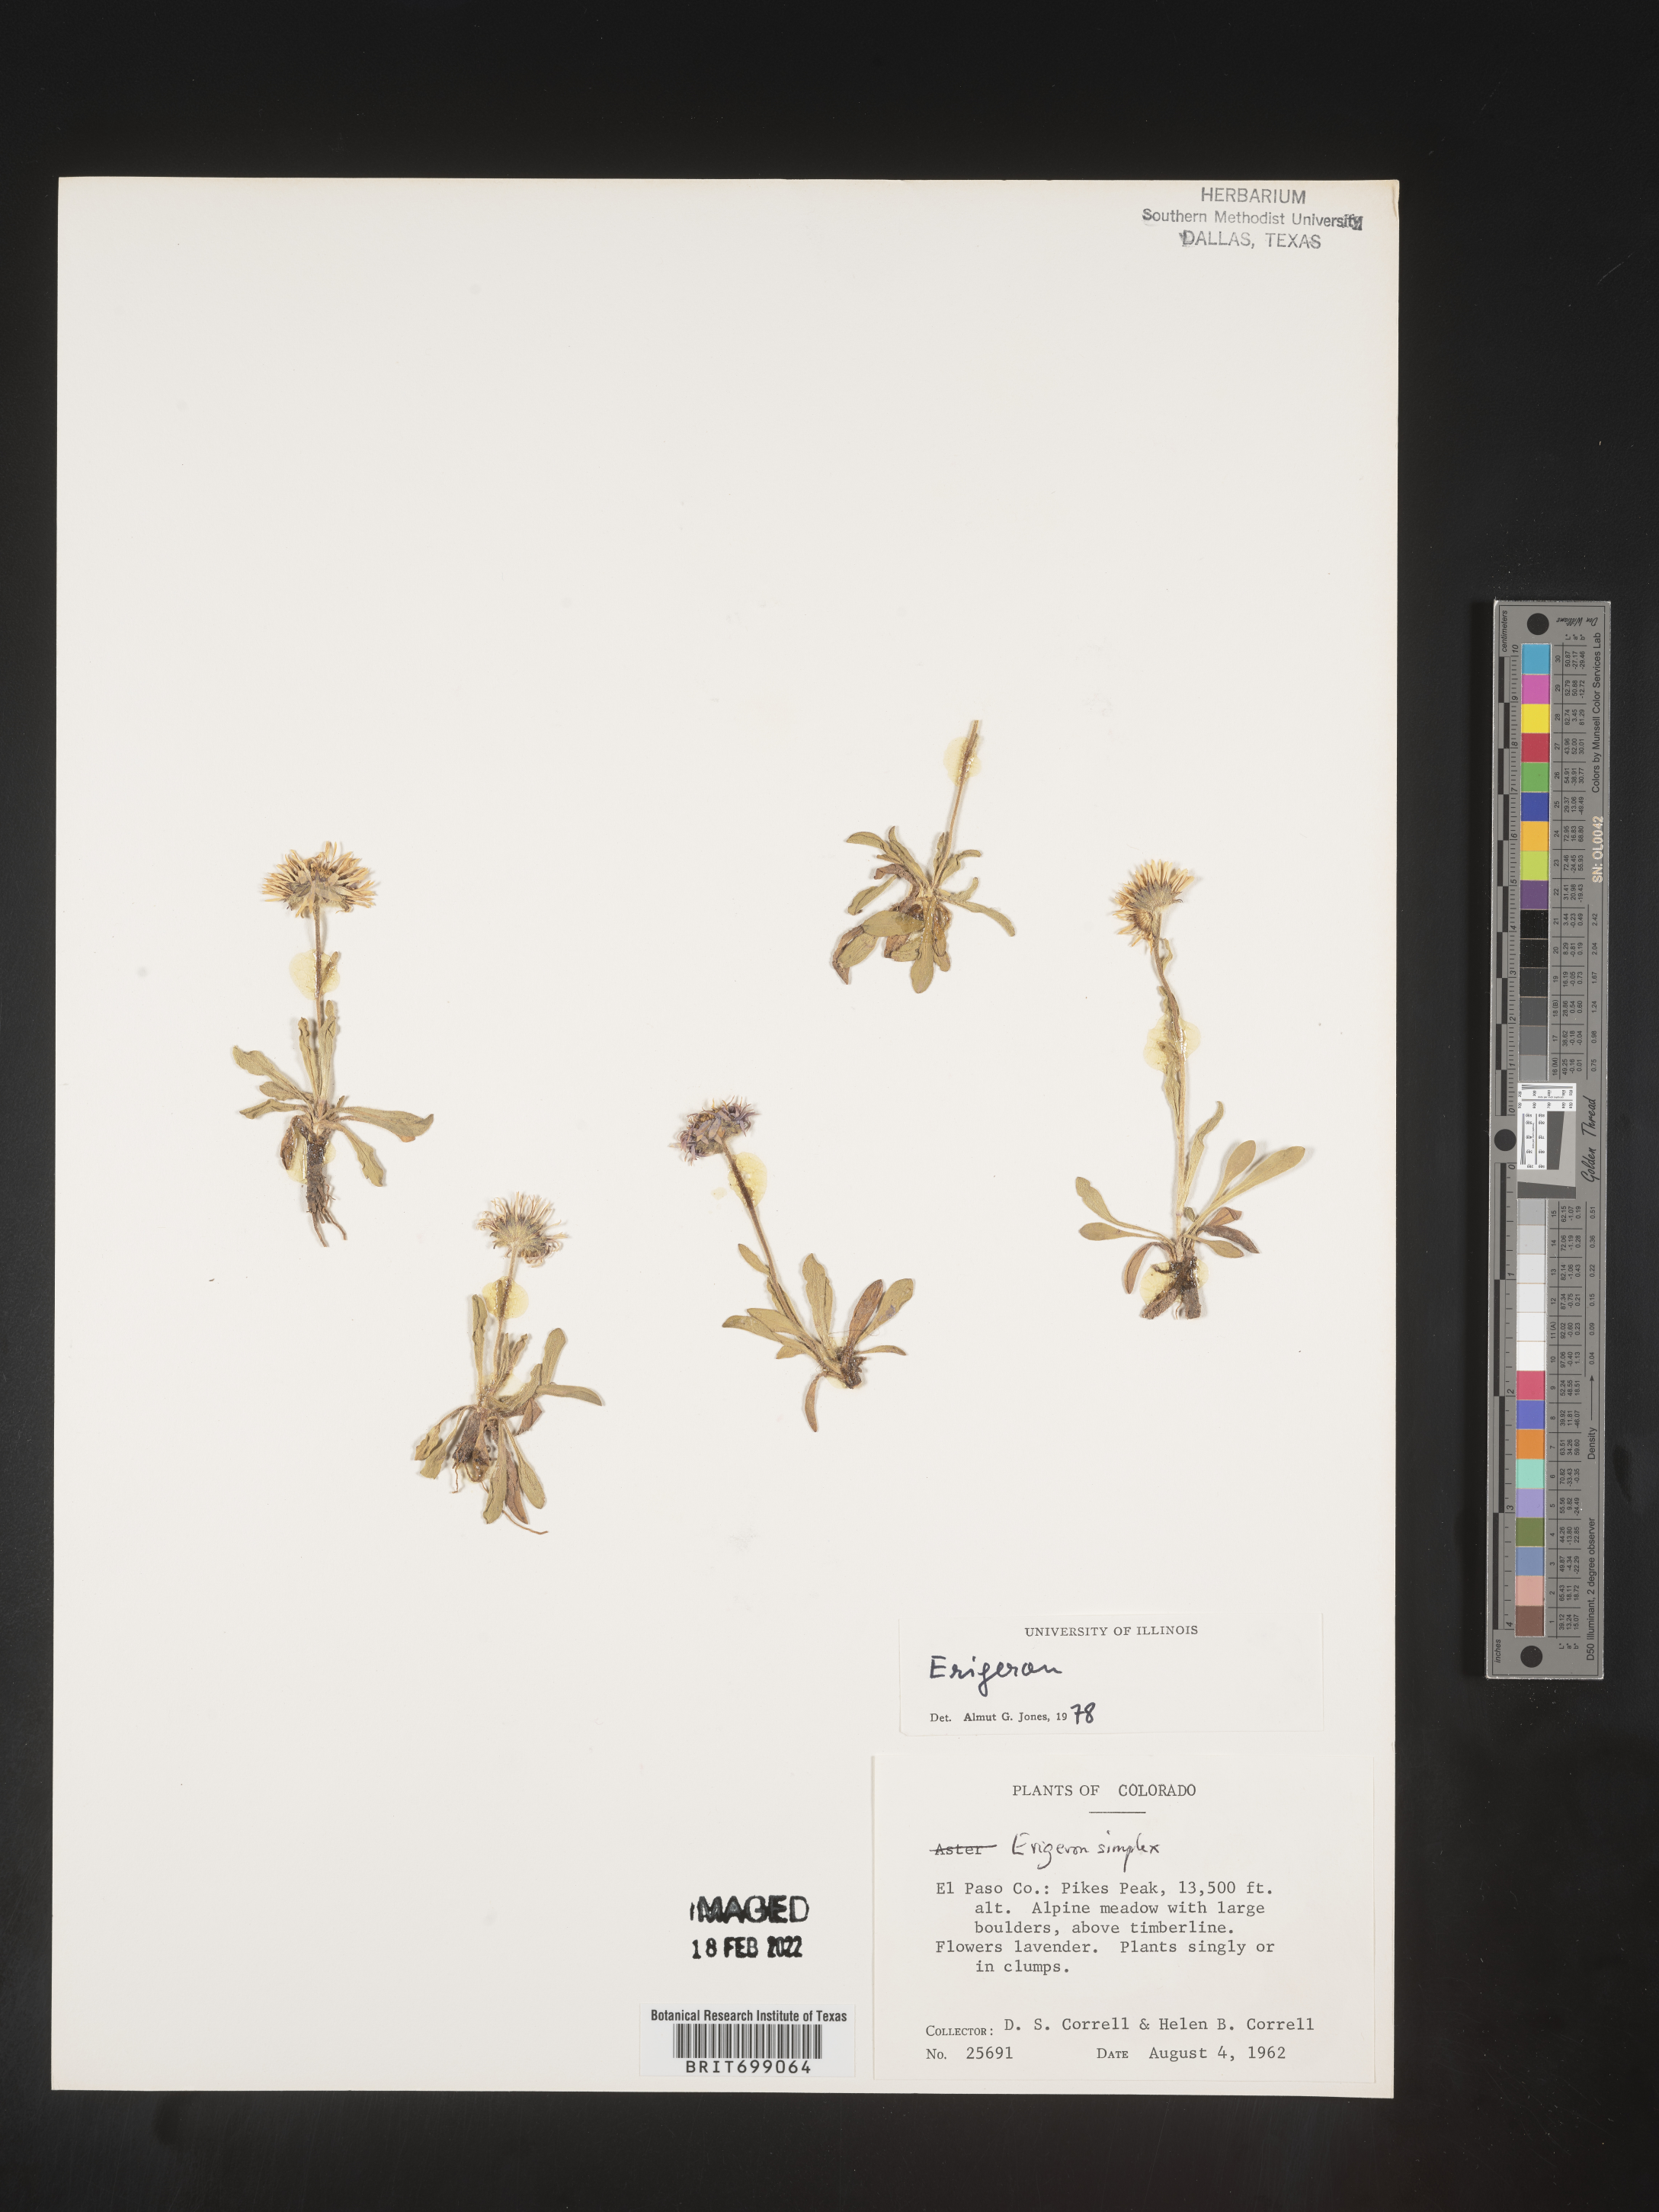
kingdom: Plantae
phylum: Tracheophyta
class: Magnoliopsida
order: Asterales
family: Asteraceae
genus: Erigeron
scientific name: Erigeron caucasicus
